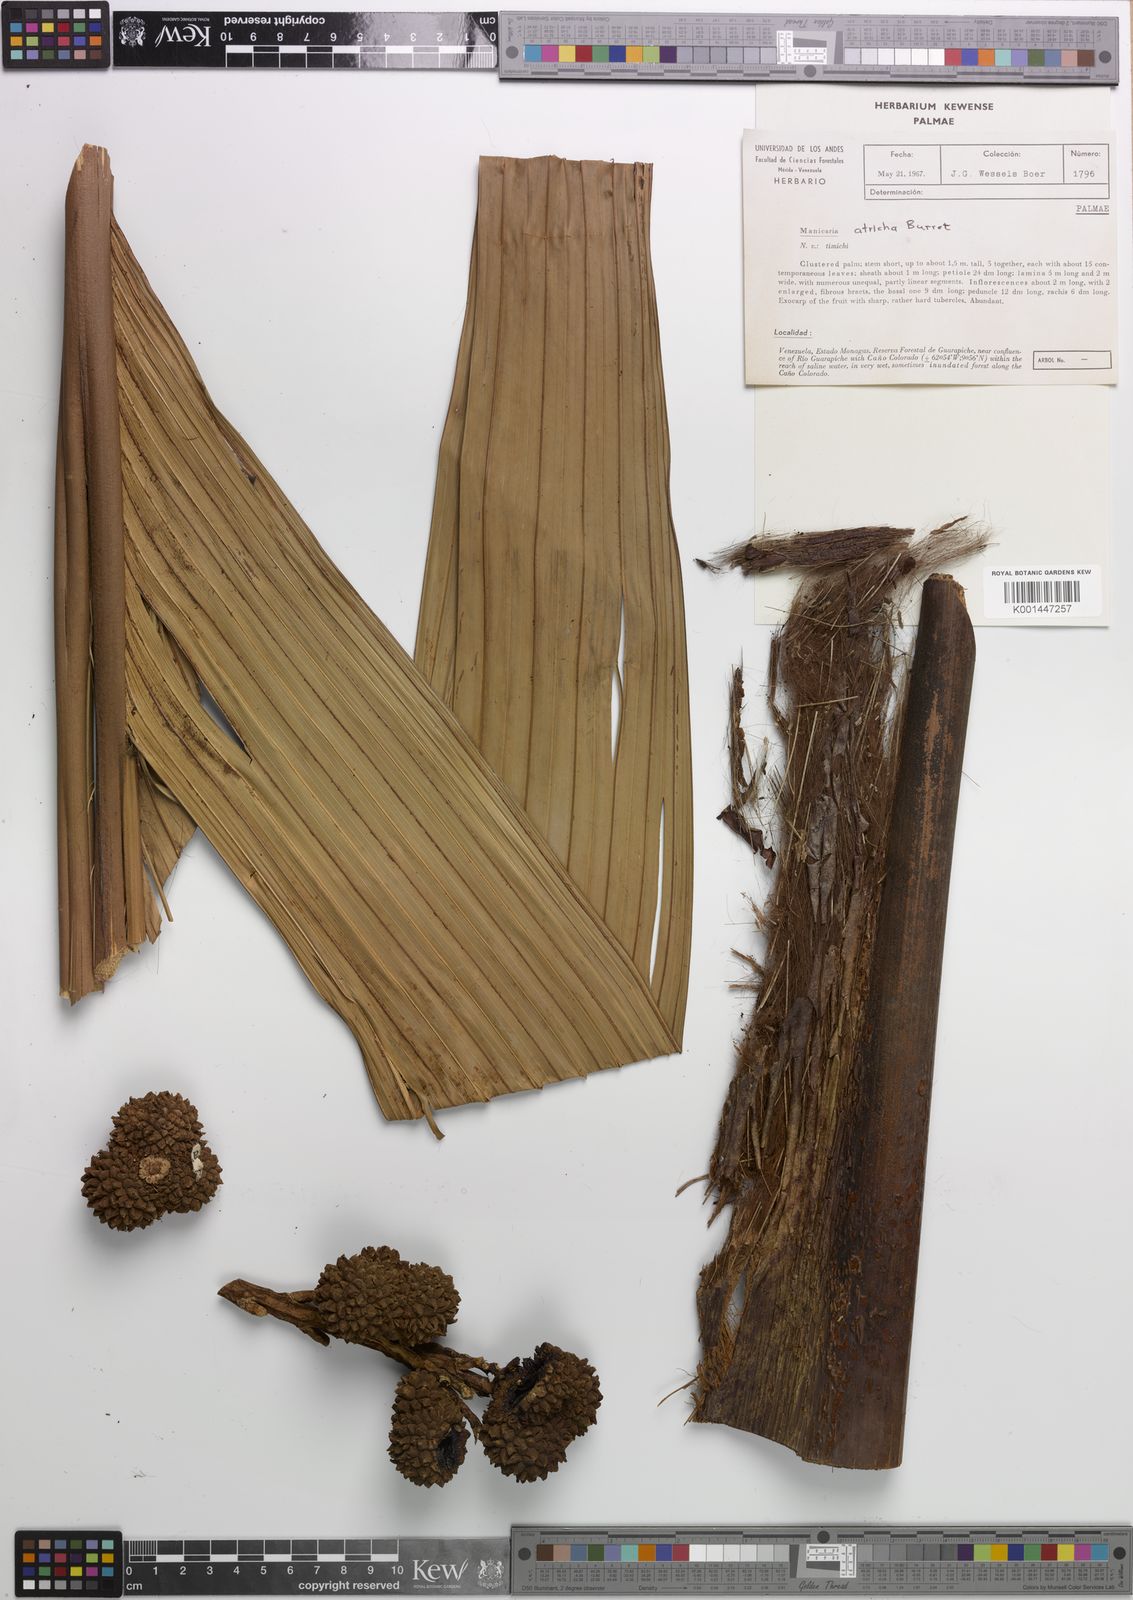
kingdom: Plantae
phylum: Tracheophyta
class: Liliopsida
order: Arecales
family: Arecaceae
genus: Manicaria
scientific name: Manicaria saccifera
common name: Sea coconut
